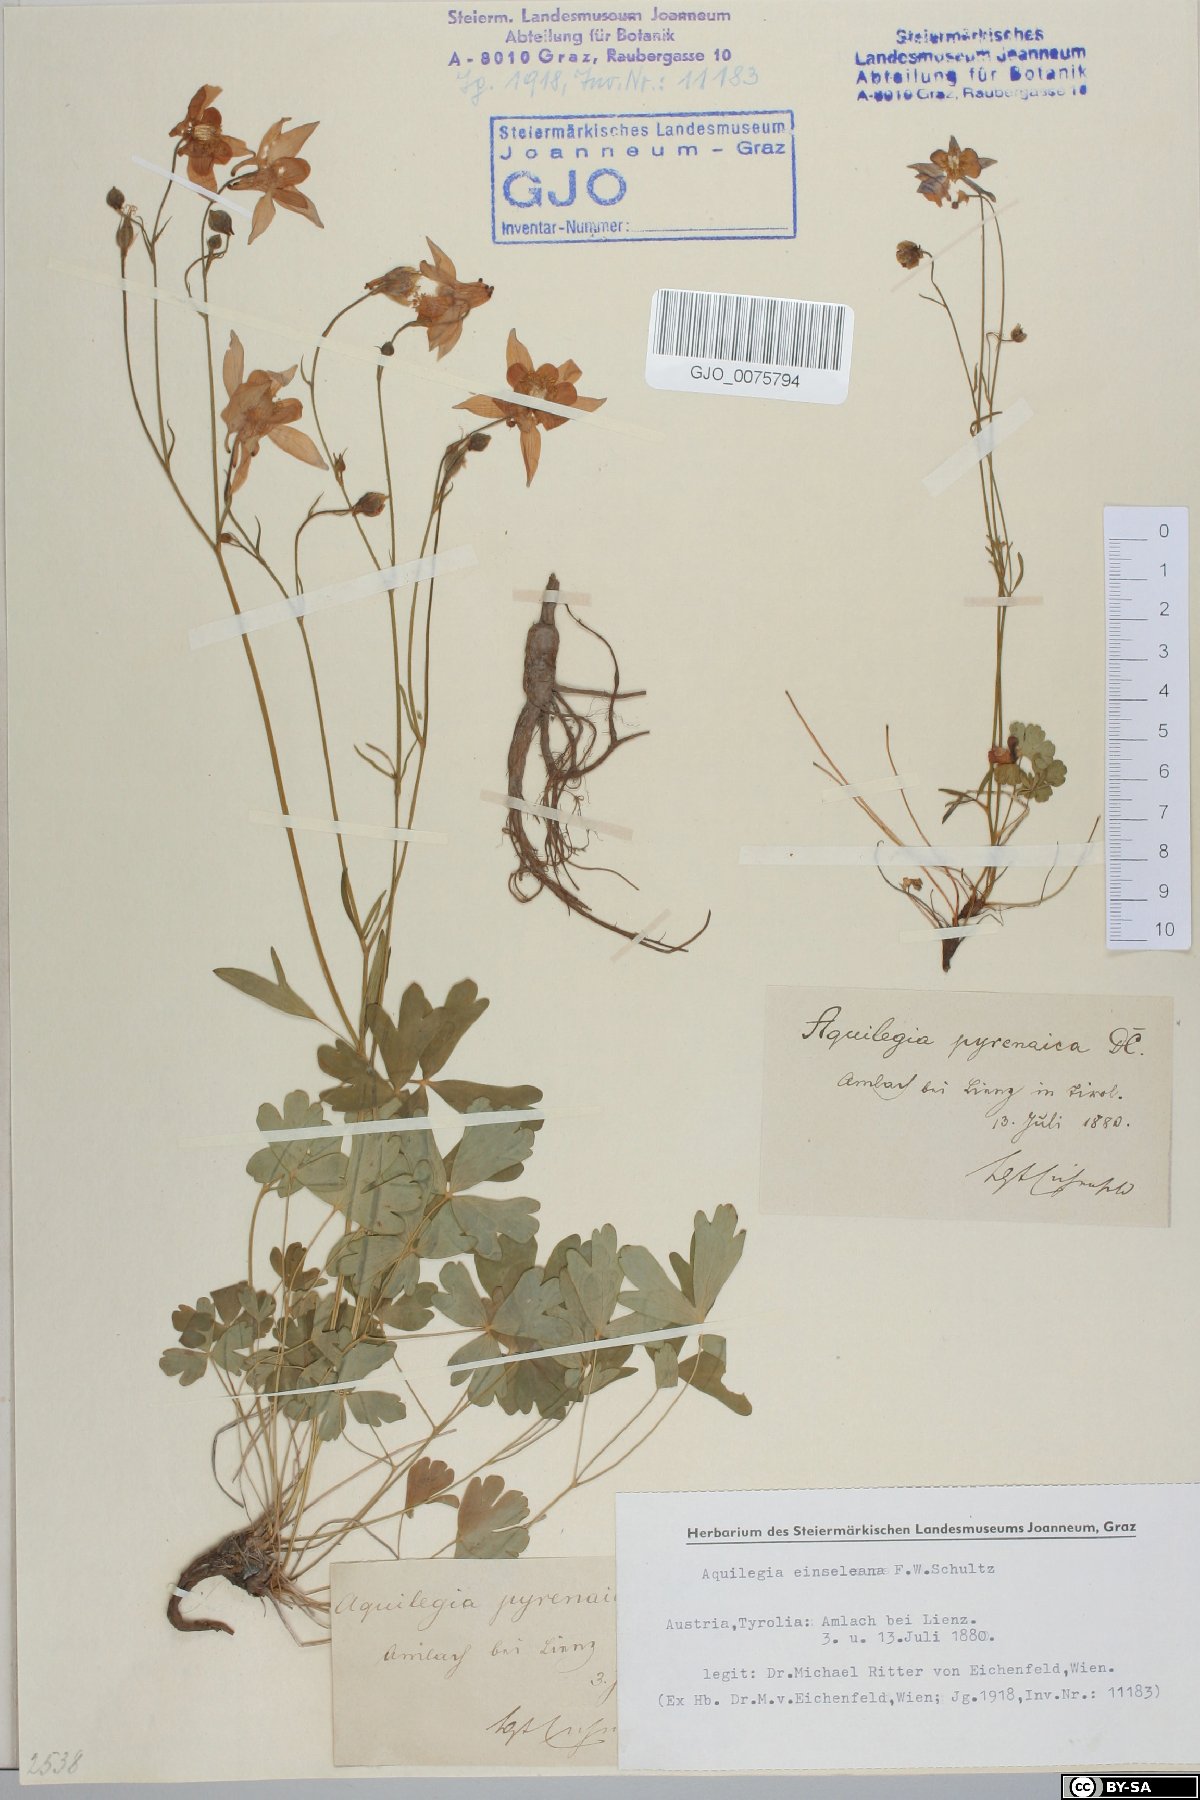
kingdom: Plantae
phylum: Tracheophyta
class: Magnoliopsida
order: Ranunculales
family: Ranunculaceae
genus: Aquilegia
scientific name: Aquilegia einseleana
